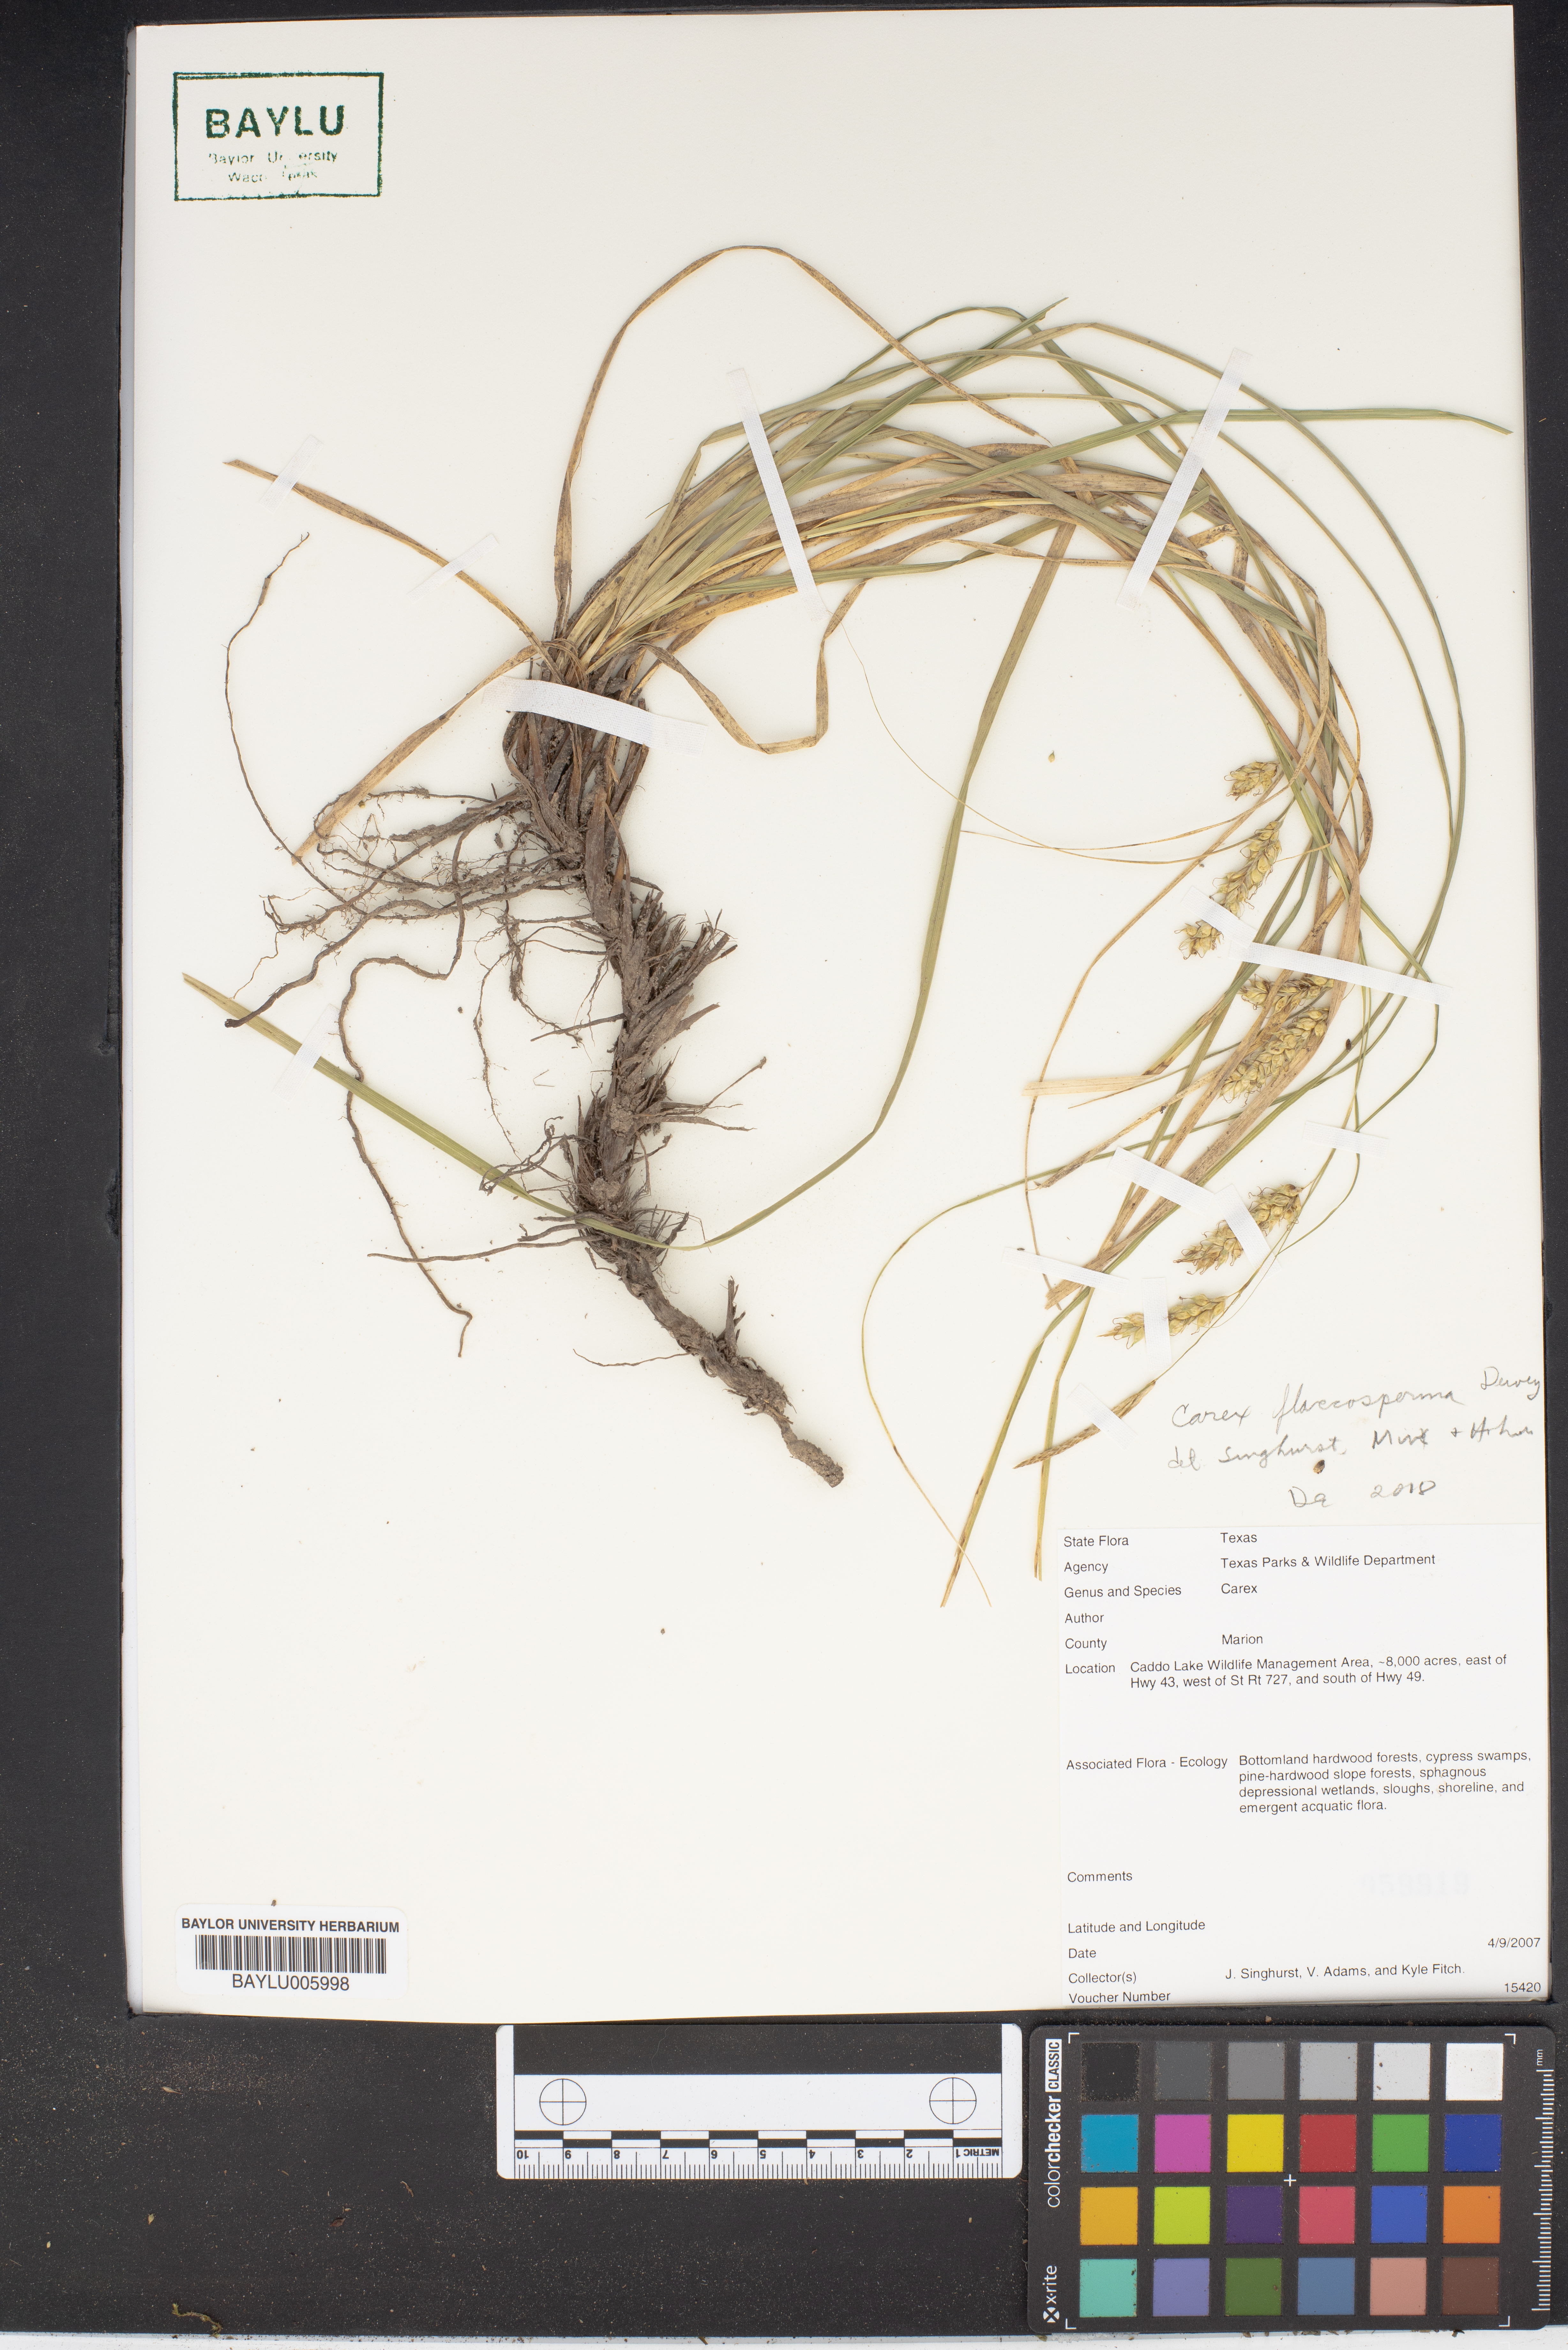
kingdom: Plantae
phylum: Tracheophyta
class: Liliopsida
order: Poales
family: Cyperaceae
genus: Carex
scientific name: Carex flaccosperma
